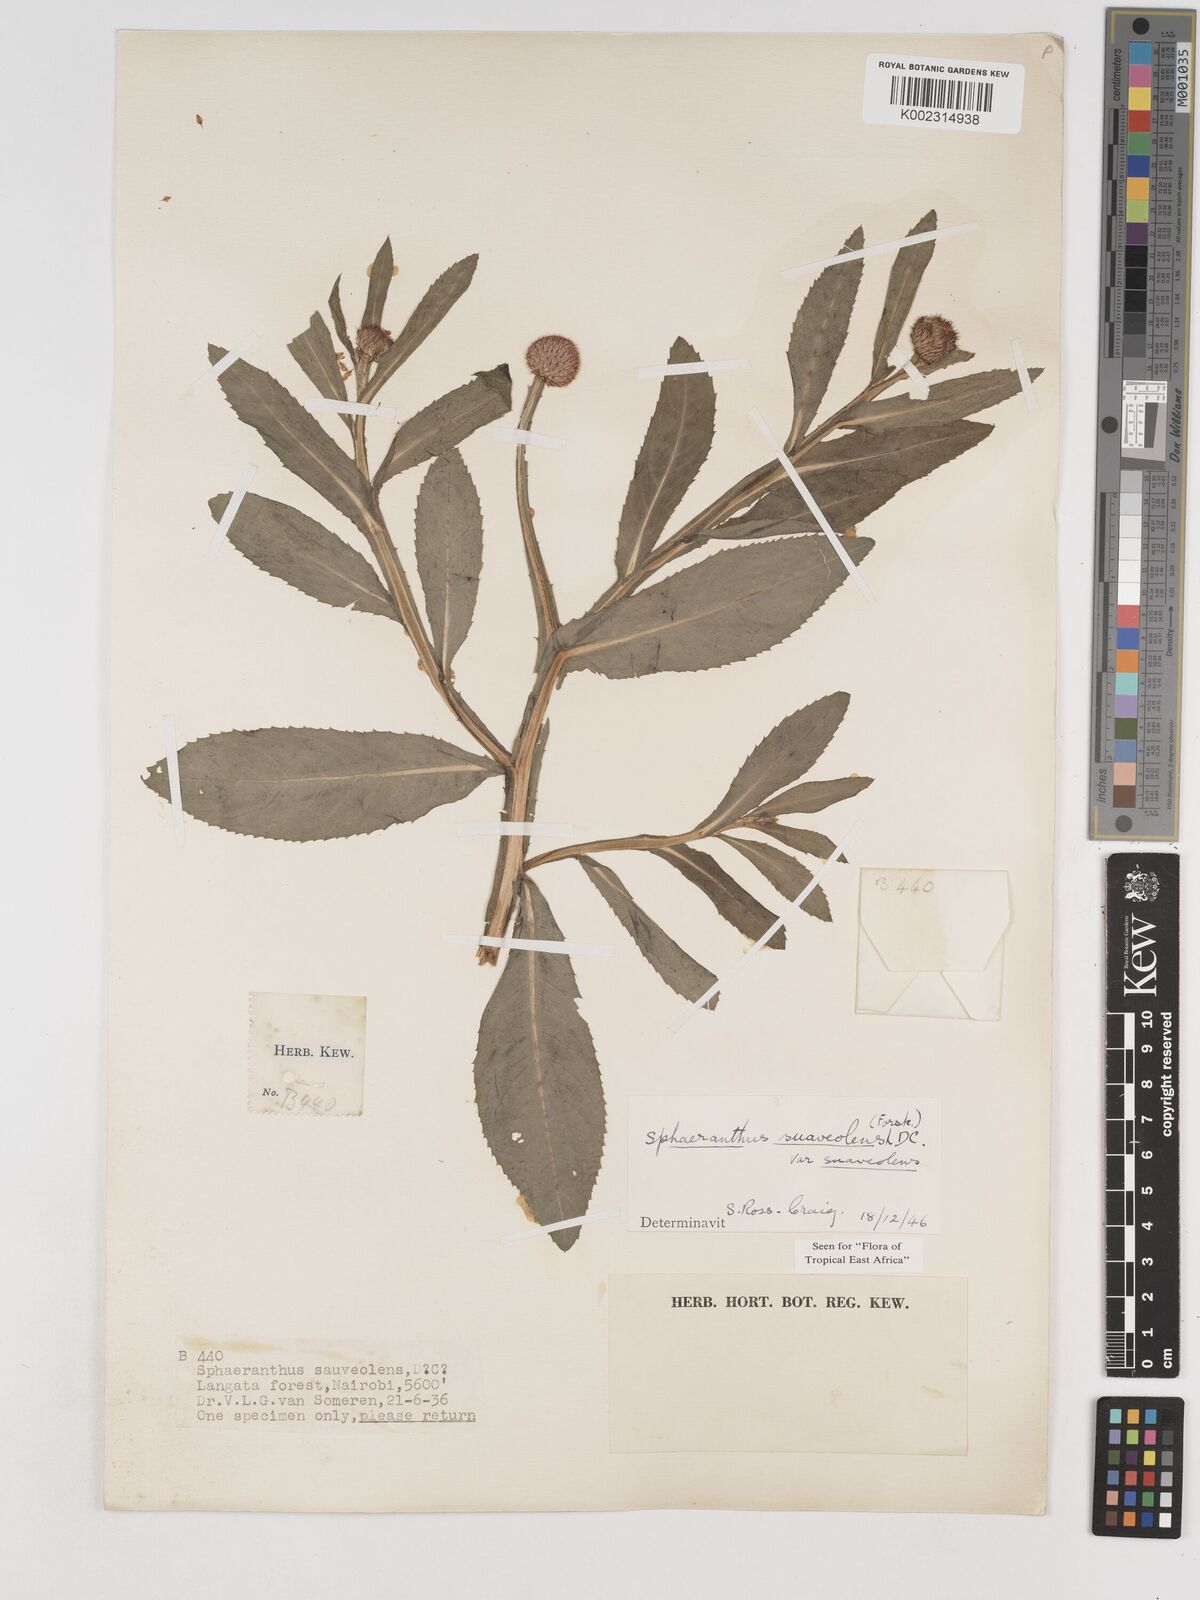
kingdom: Plantae
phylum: Tracheophyta
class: Magnoliopsida
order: Asterales
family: Asteraceae
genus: Sphaeranthus
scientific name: Sphaeranthus suaveolens
